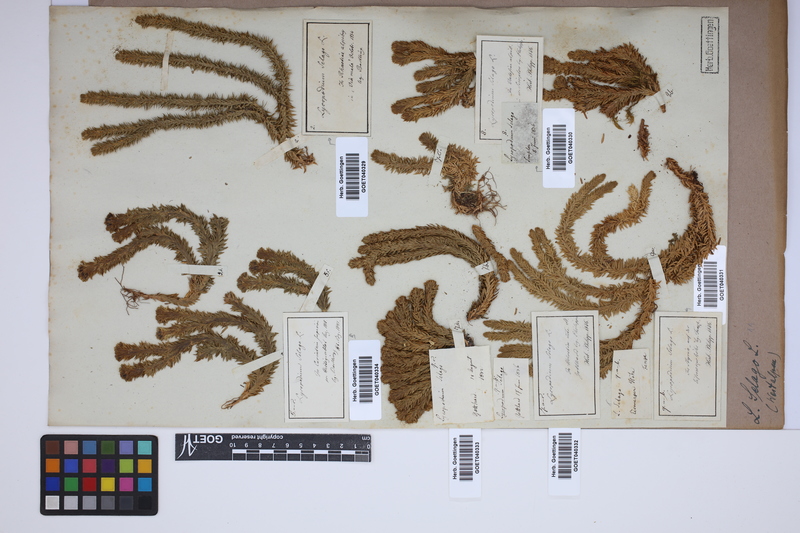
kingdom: Plantae
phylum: Tracheophyta
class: Lycopodiopsida
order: Lycopodiales
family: Lycopodiaceae
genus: Huperzia
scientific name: Huperzia selago
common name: Northern firmoss
